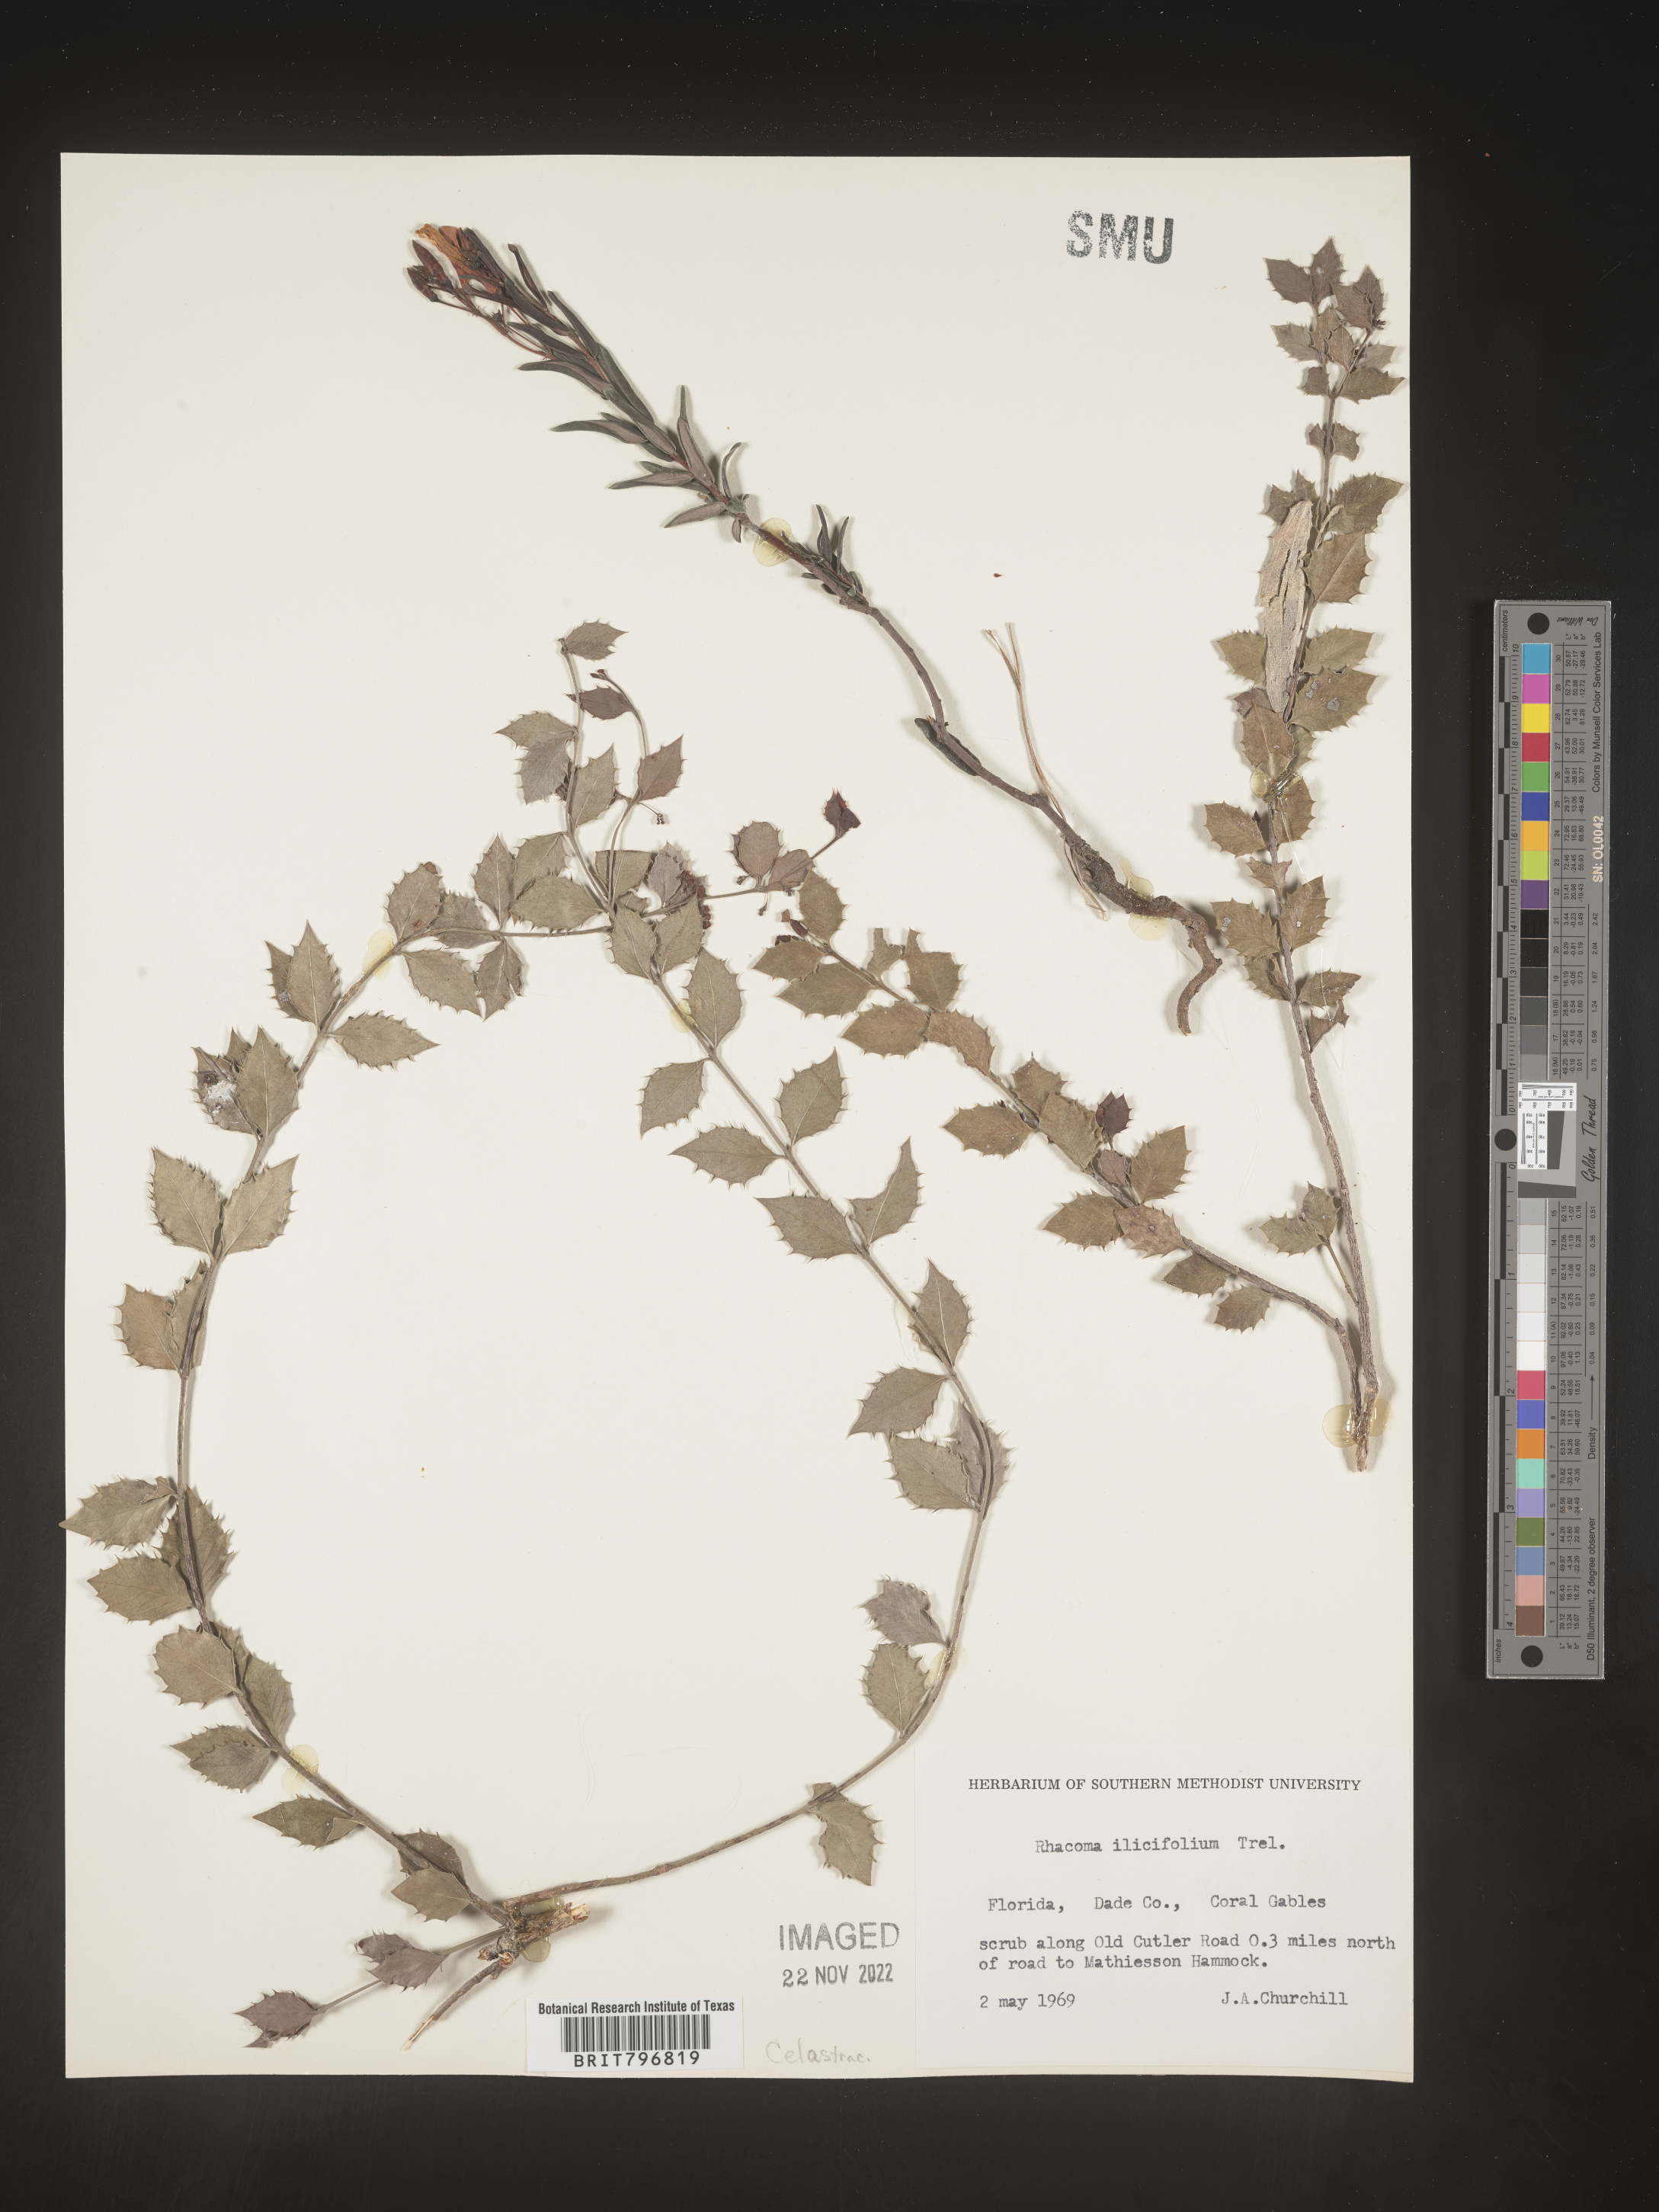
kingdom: Plantae
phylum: Tracheophyta
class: Magnoliopsida
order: Celastrales
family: Celastraceae
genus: Crossopetalum
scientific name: Crossopetalum
